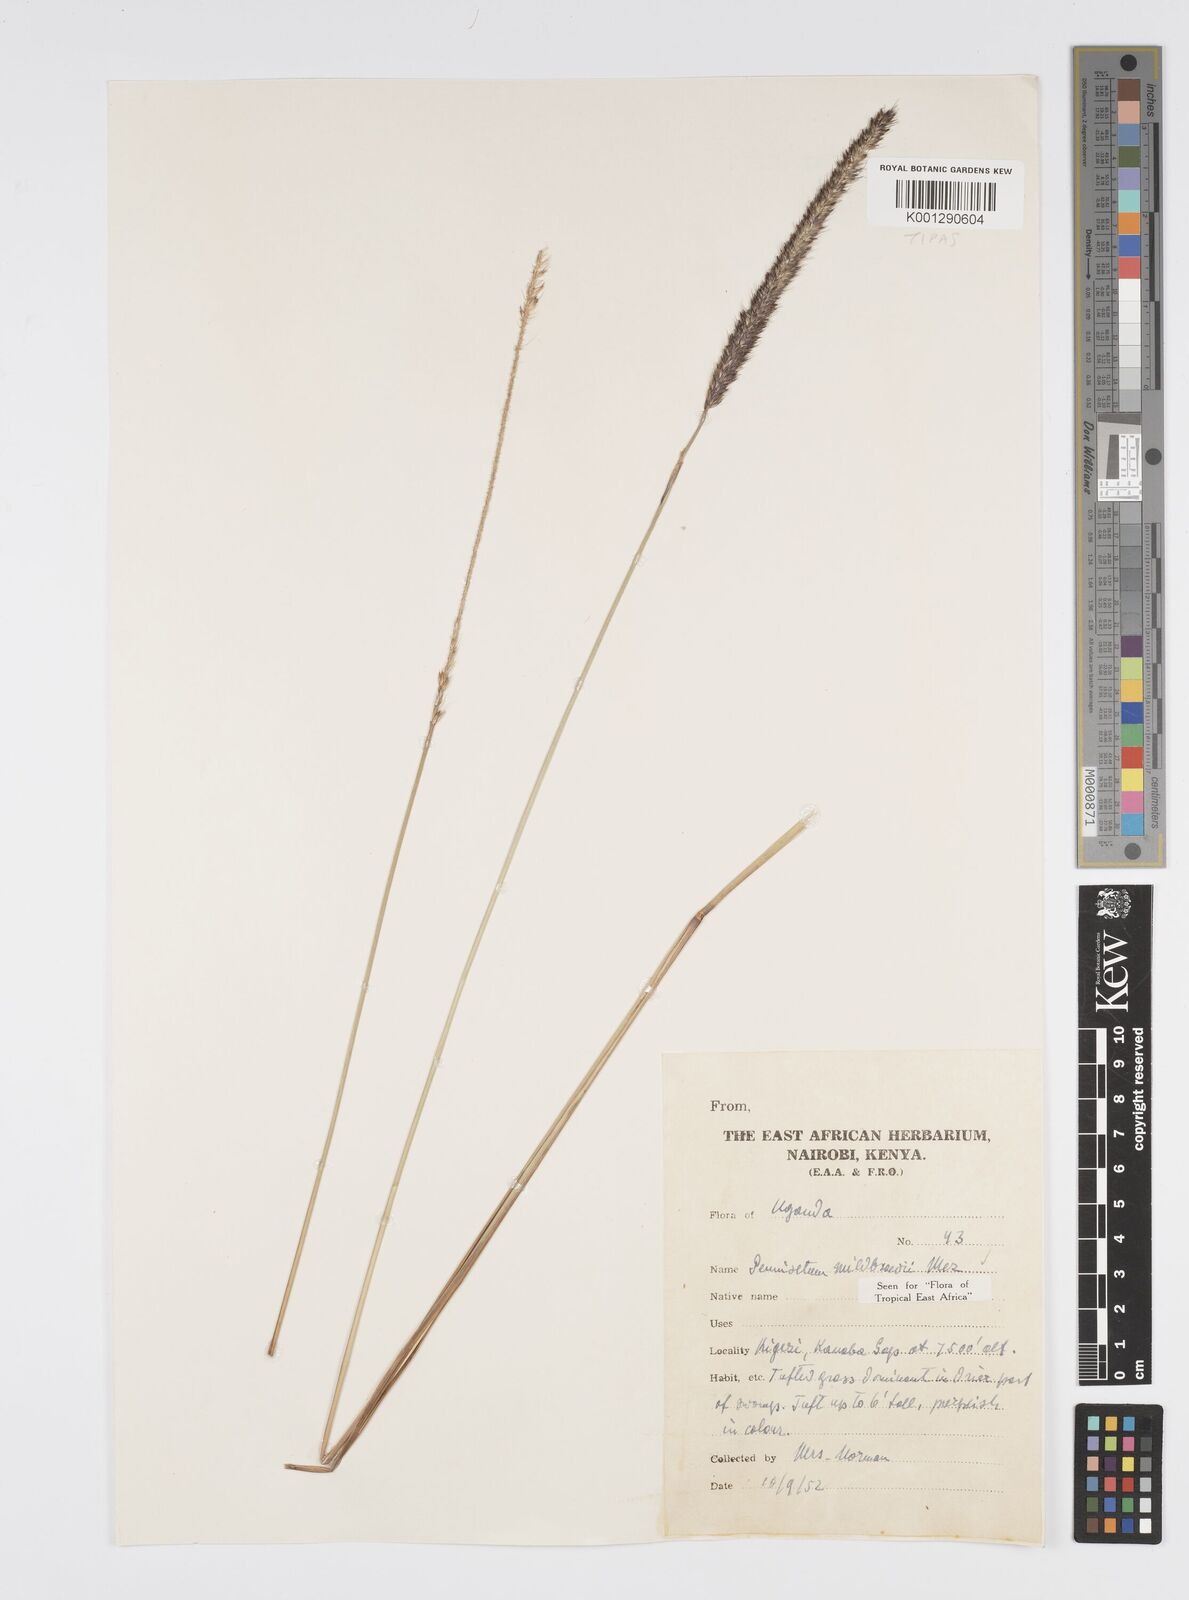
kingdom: Plantae
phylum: Tracheophyta
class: Liliopsida
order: Poales
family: Poaceae
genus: Cenchrus
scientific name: Cenchrus Pennisetum spec
